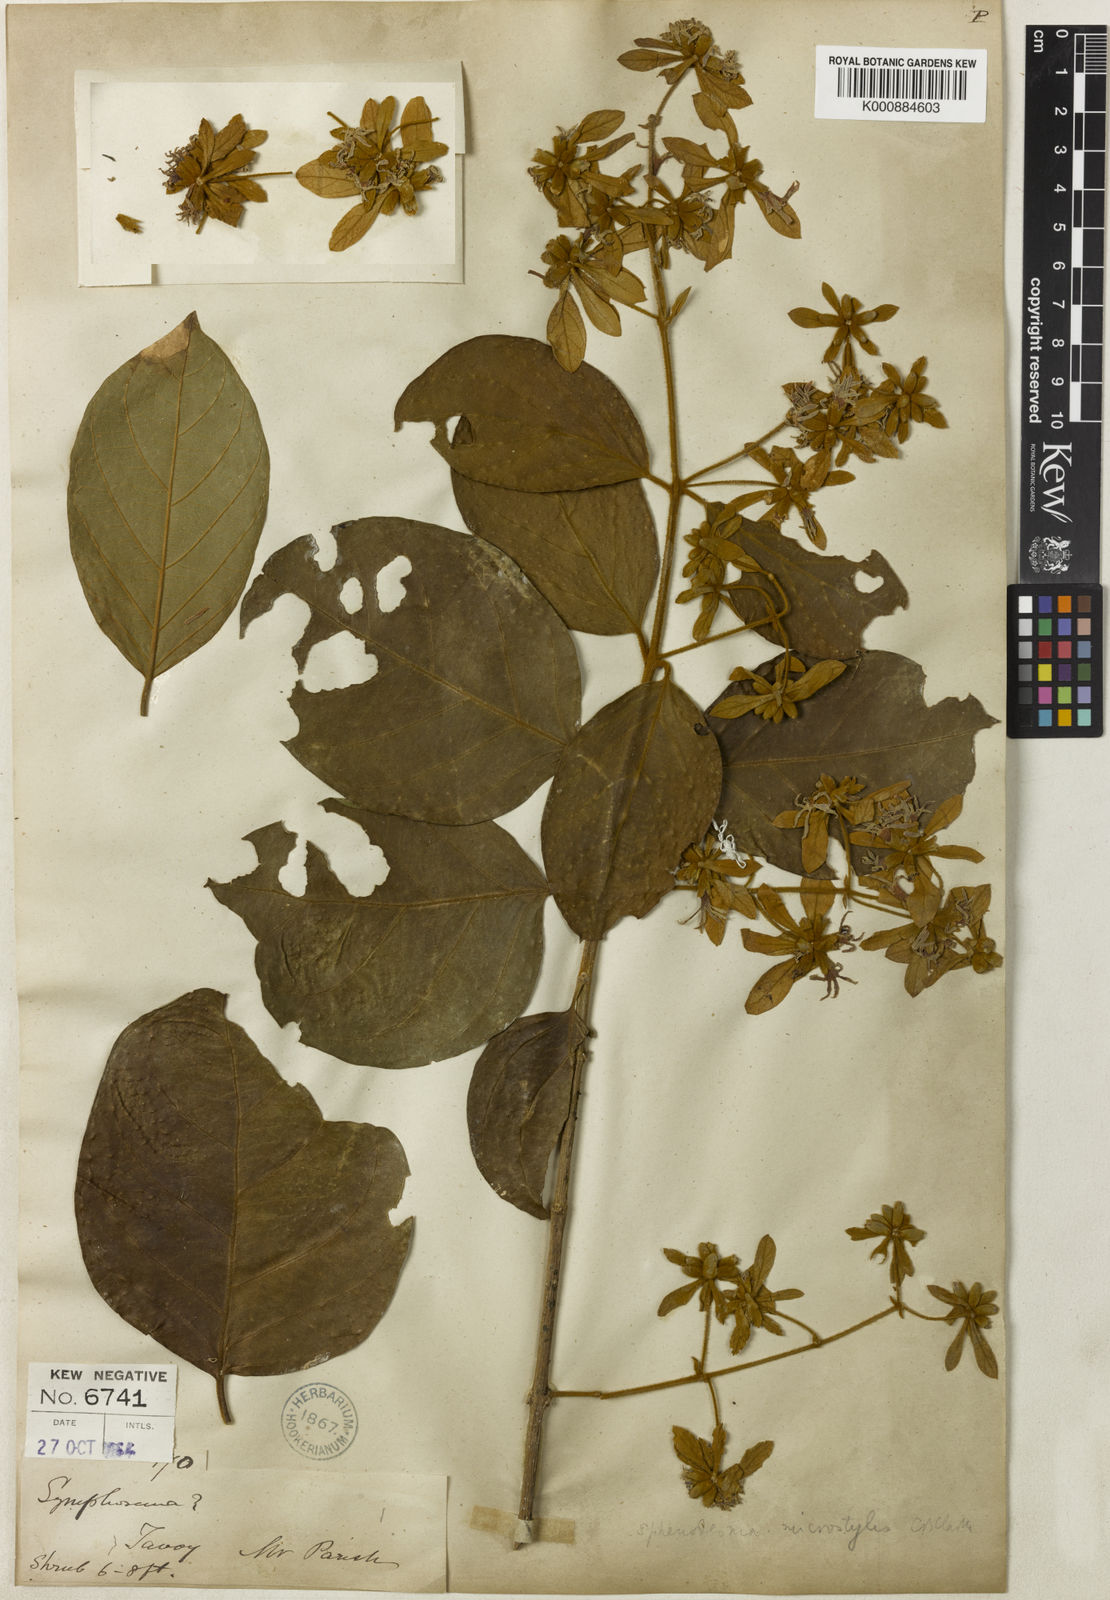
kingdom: Plantae
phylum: Tracheophyta
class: Magnoliopsida
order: Lamiales
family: Lamiaceae
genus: Sphenodesme
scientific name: Sphenodesme ferruginea
